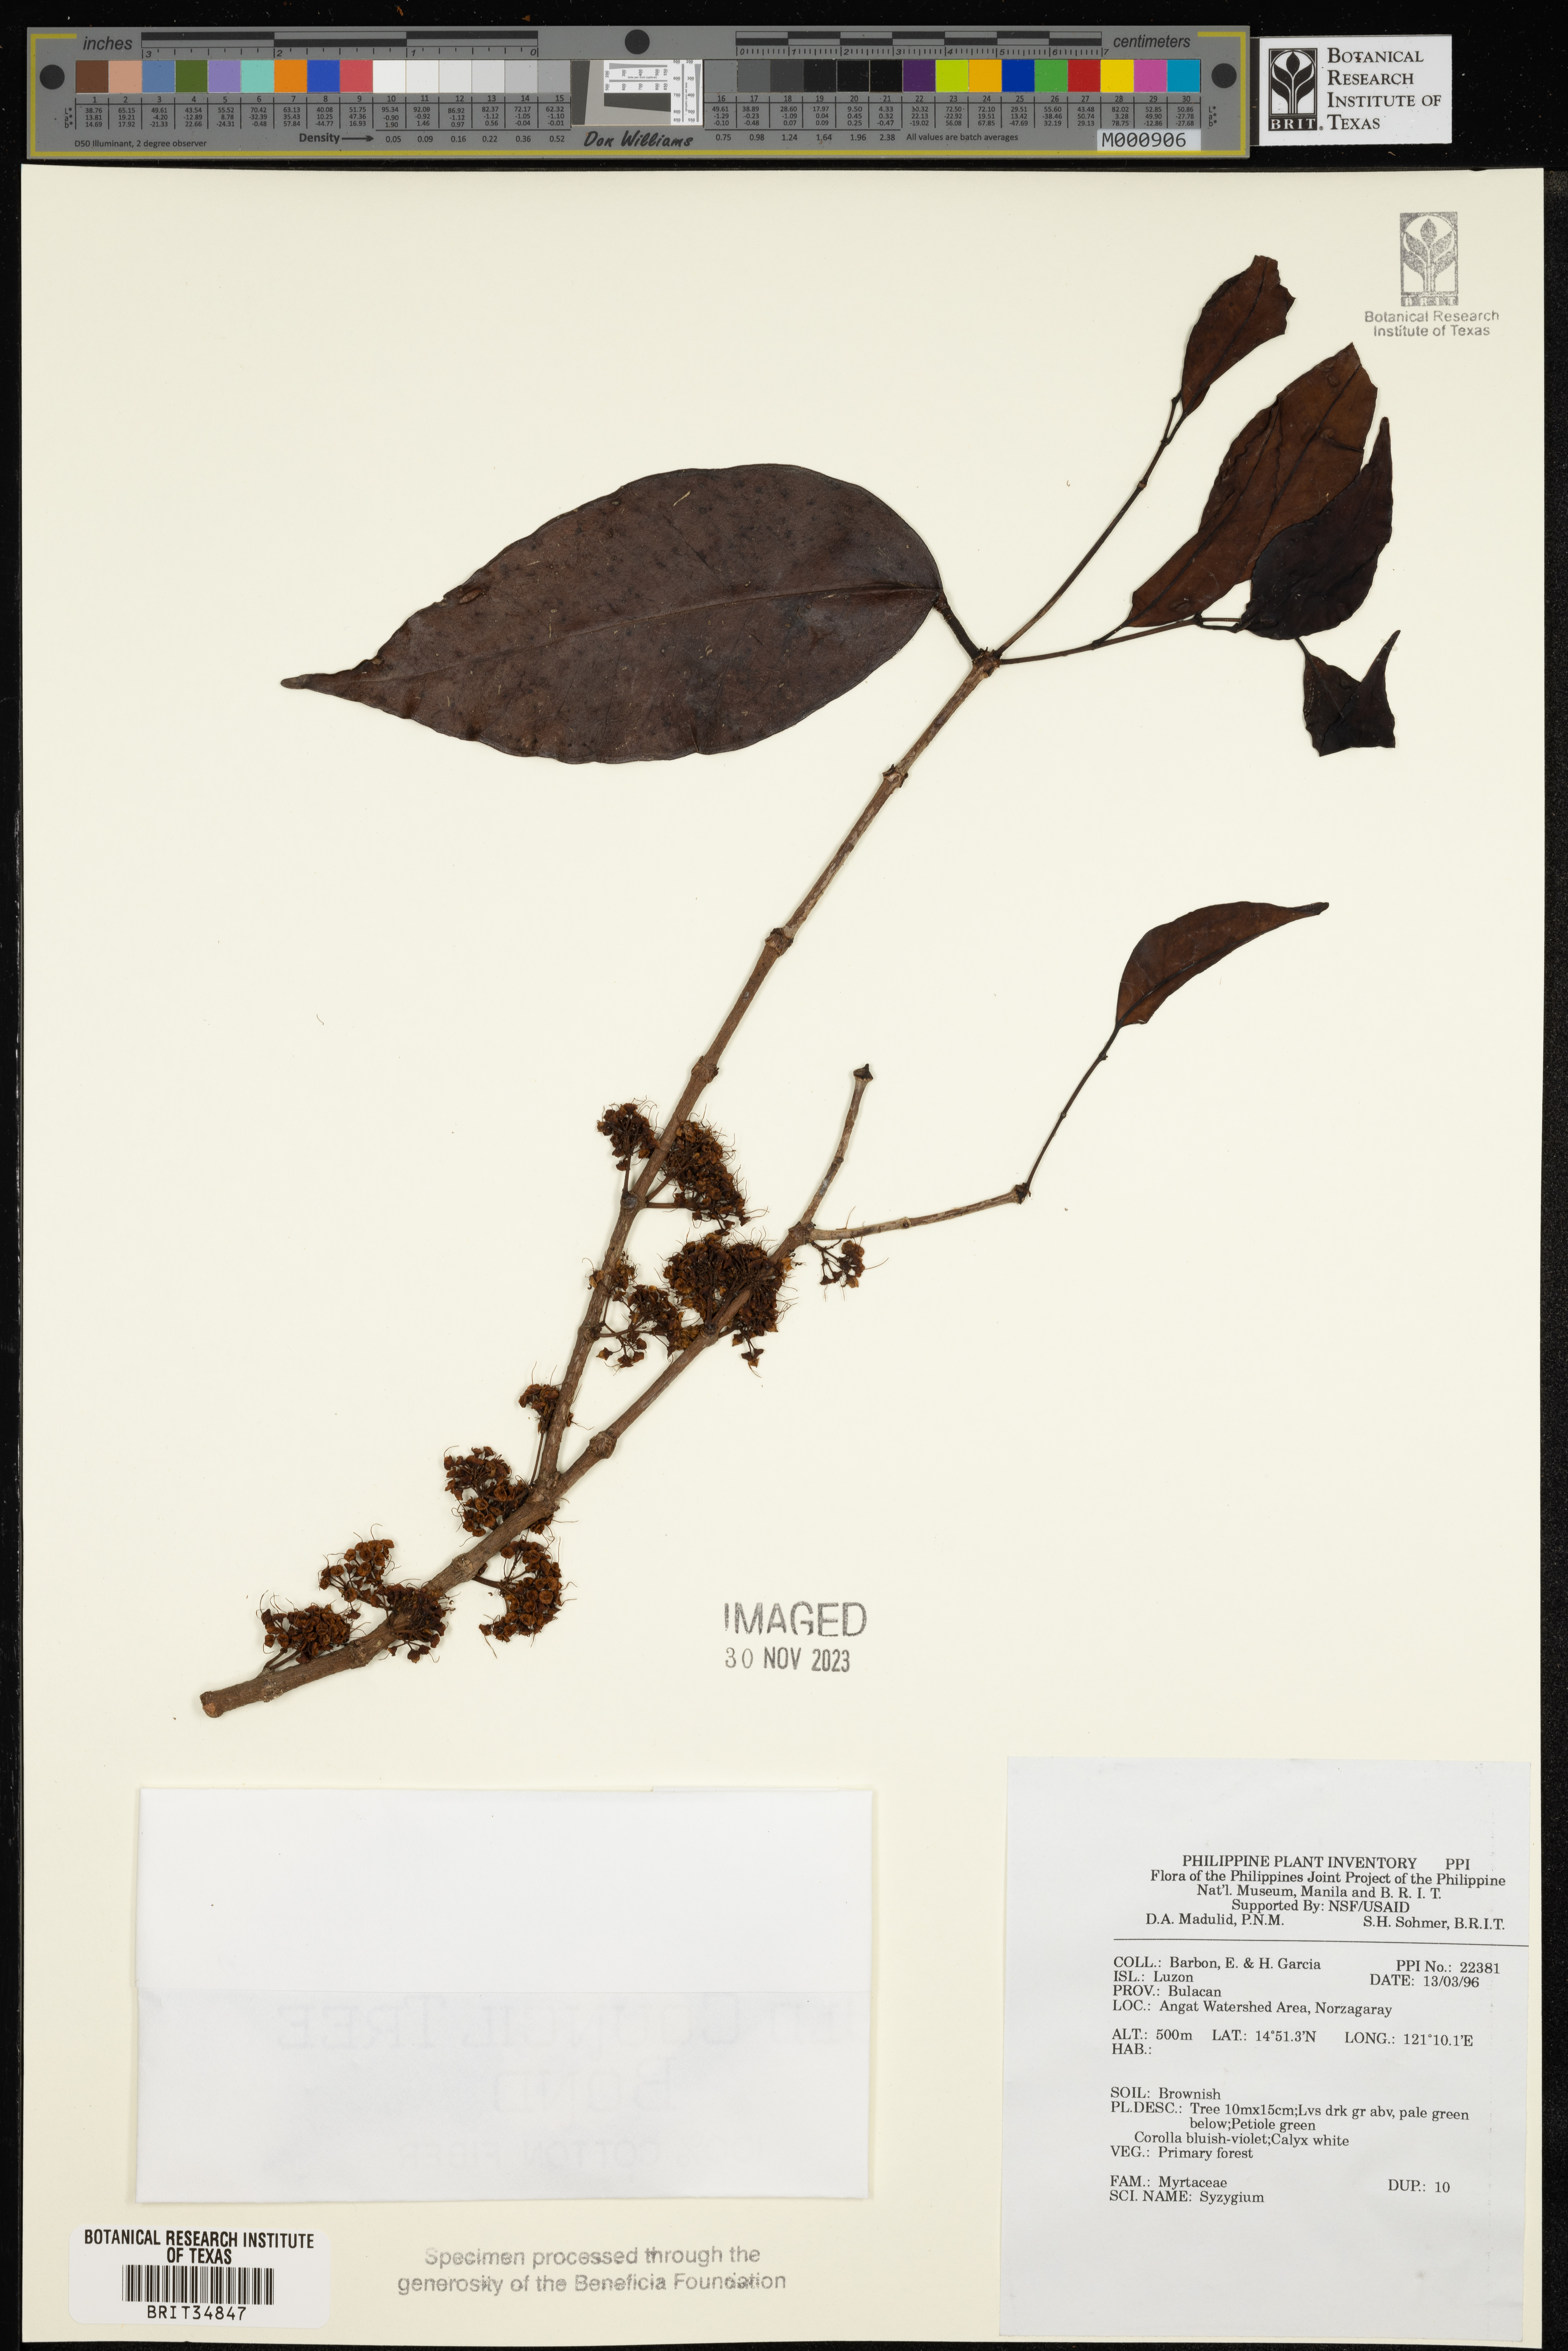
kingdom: Plantae
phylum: Tracheophyta
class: Magnoliopsida
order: Myrtales
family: Myrtaceae
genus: Syzygium
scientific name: Syzygium
